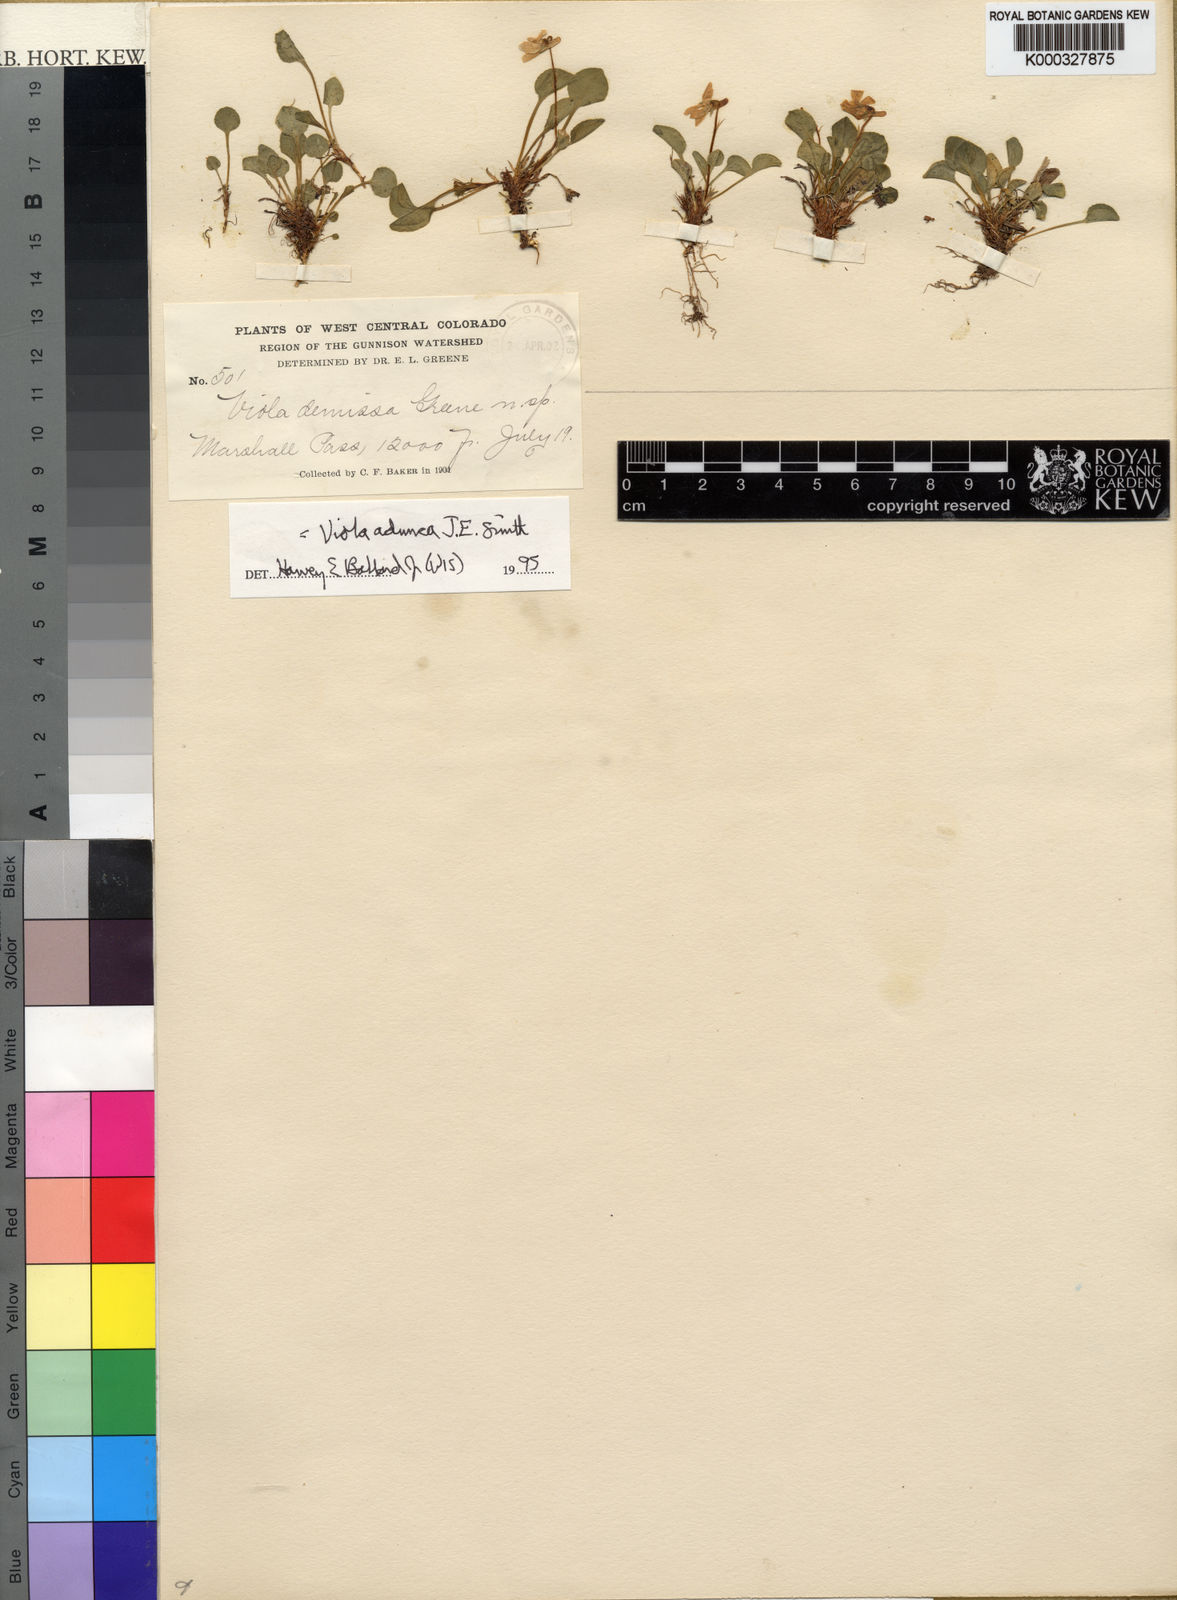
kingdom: Plantae
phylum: Tracheophyta
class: Magnoliopsida
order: Malpighiales
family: Violaceae
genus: Viola
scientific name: Viola adunca
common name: Sand violet
